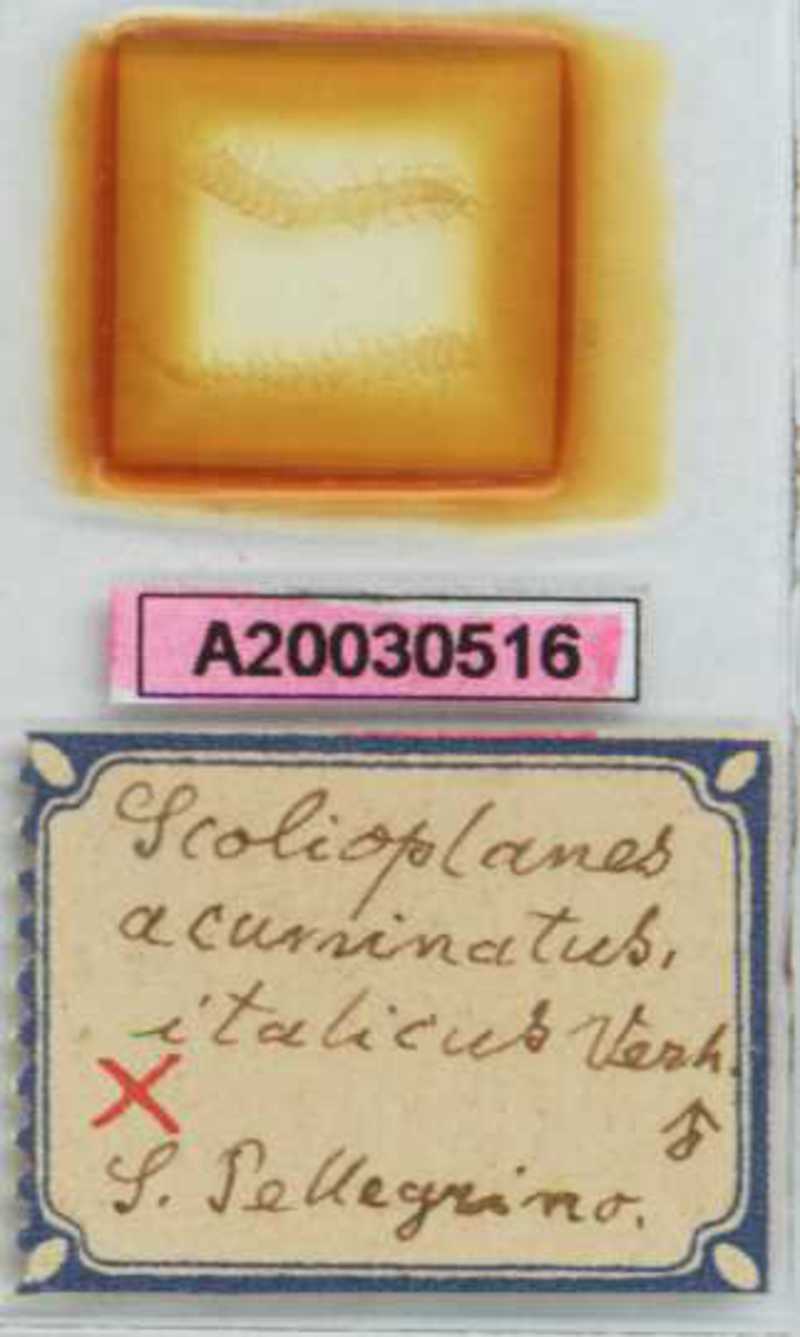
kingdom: Animalia
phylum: Arthropoda
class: Chilopoda
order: Geophilomorpha
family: Linotaeniidae
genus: Strigamia
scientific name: Strigamia acuminata
